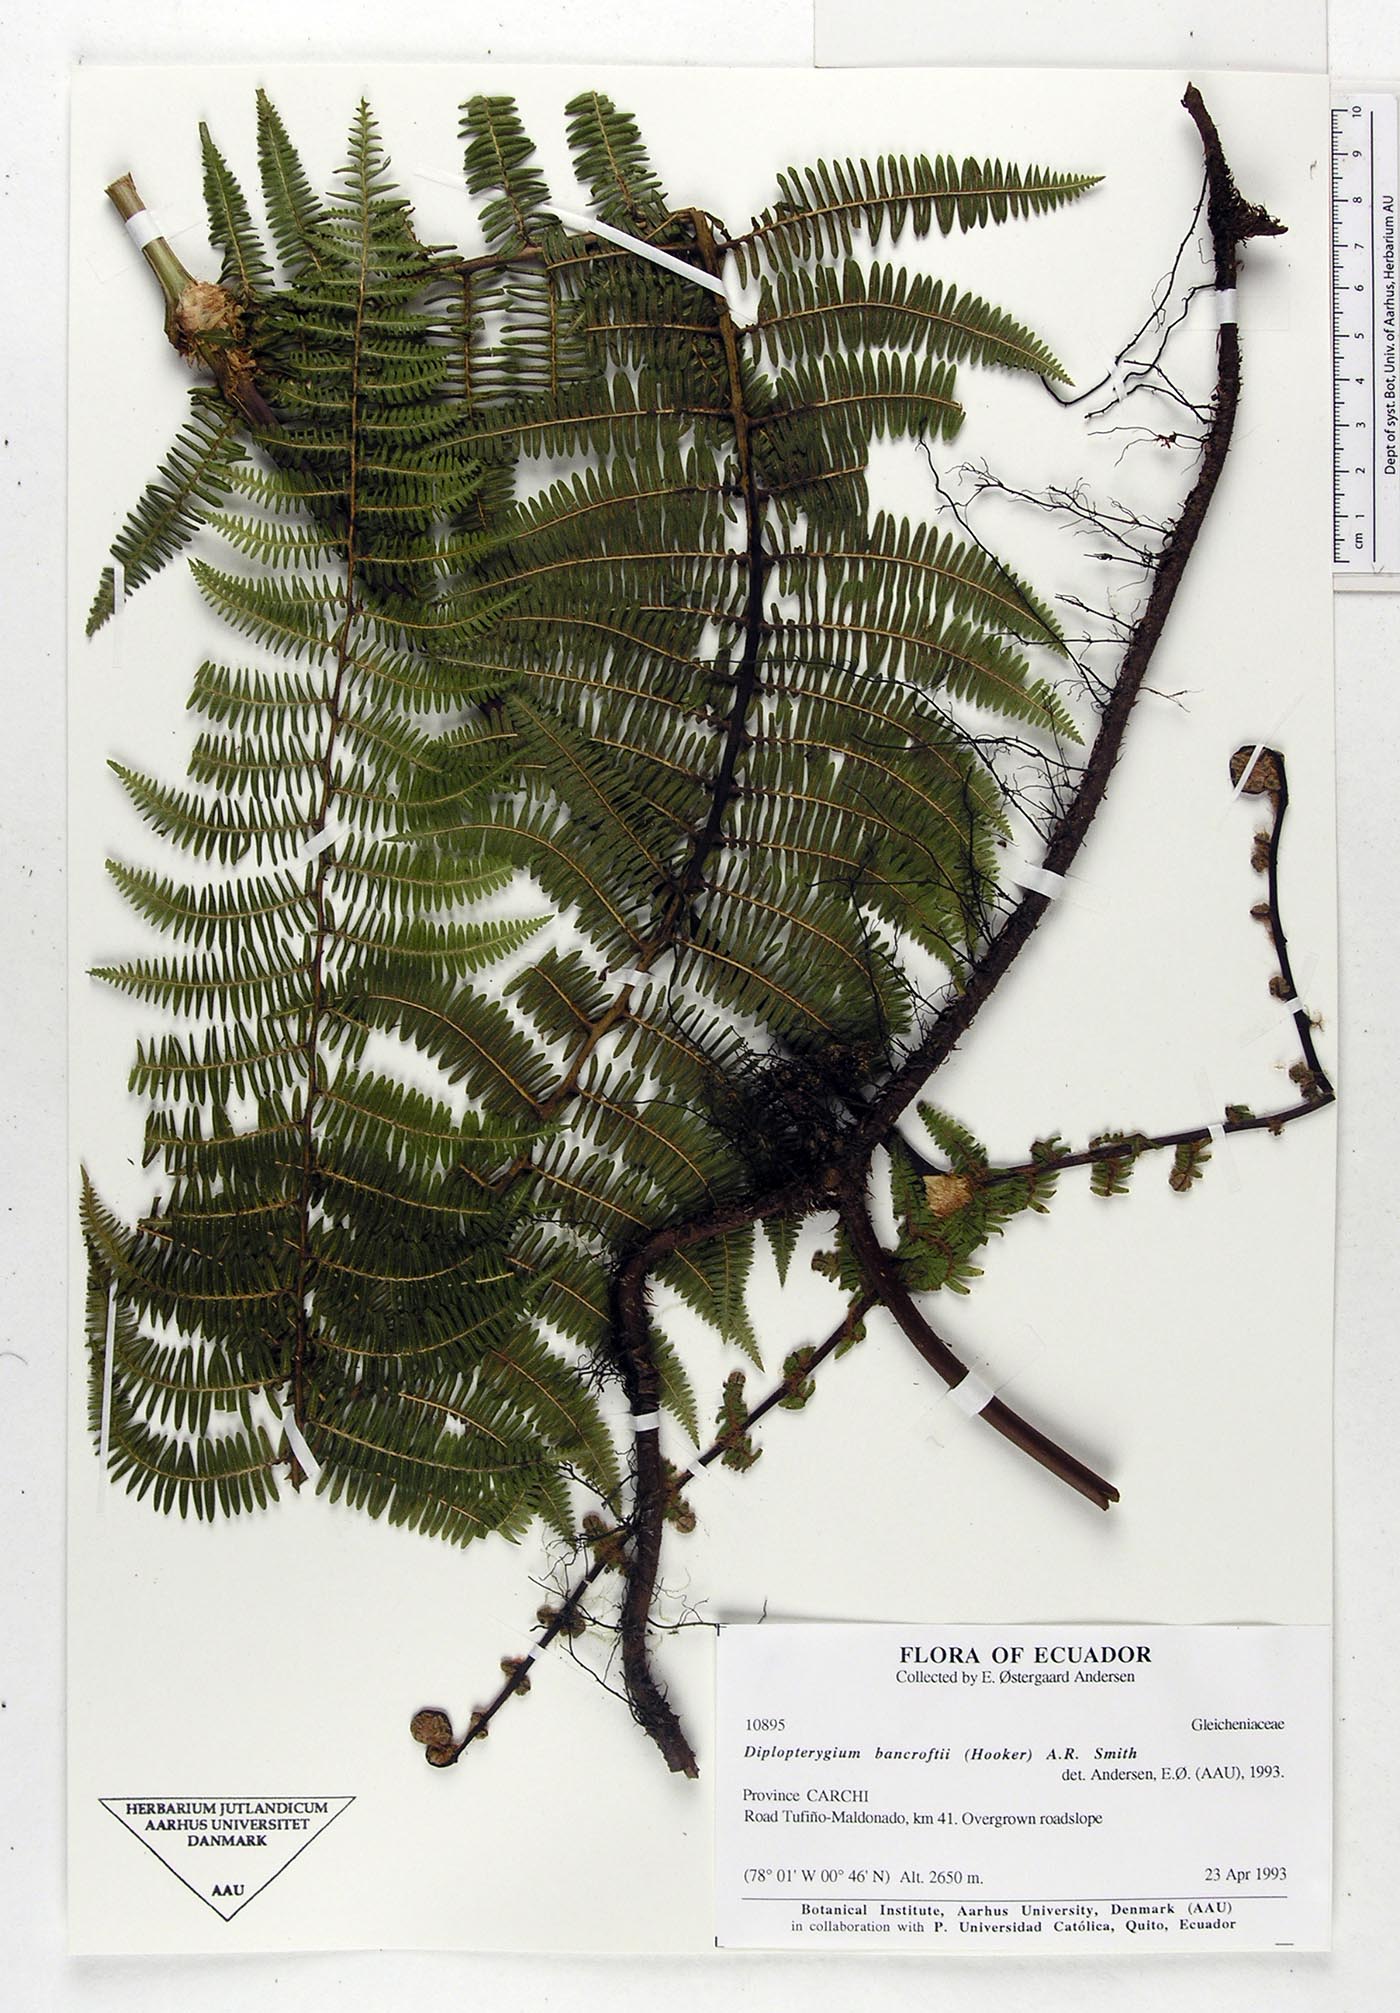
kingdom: Plantae
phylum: Tracheophyta
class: Polypodiopsida
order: Gleicheniales
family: Gleicheniaceae
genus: Diplopterygium
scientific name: Diplopterygium bancroftii
